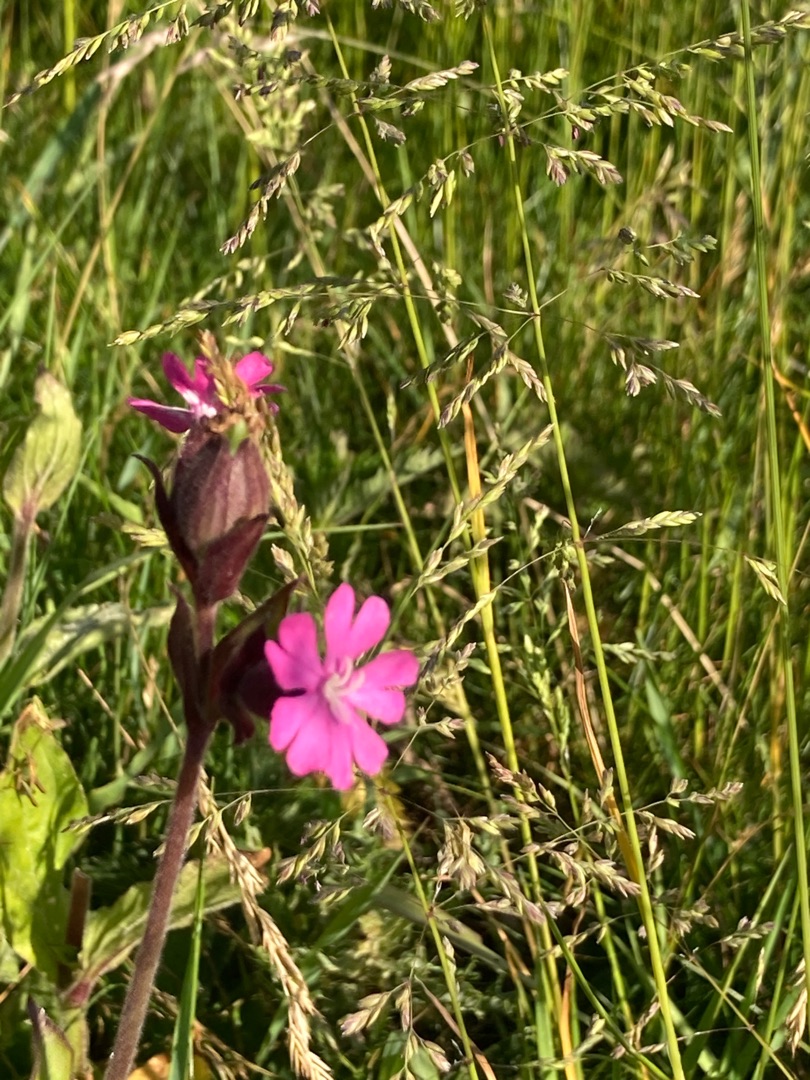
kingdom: Plantae
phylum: Tracheophyta
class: Magnoliopsida
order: Caryophyllales
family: Caryophyllaceae
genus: Silene
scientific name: Silene dioica
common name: Dagpragtstjerne
